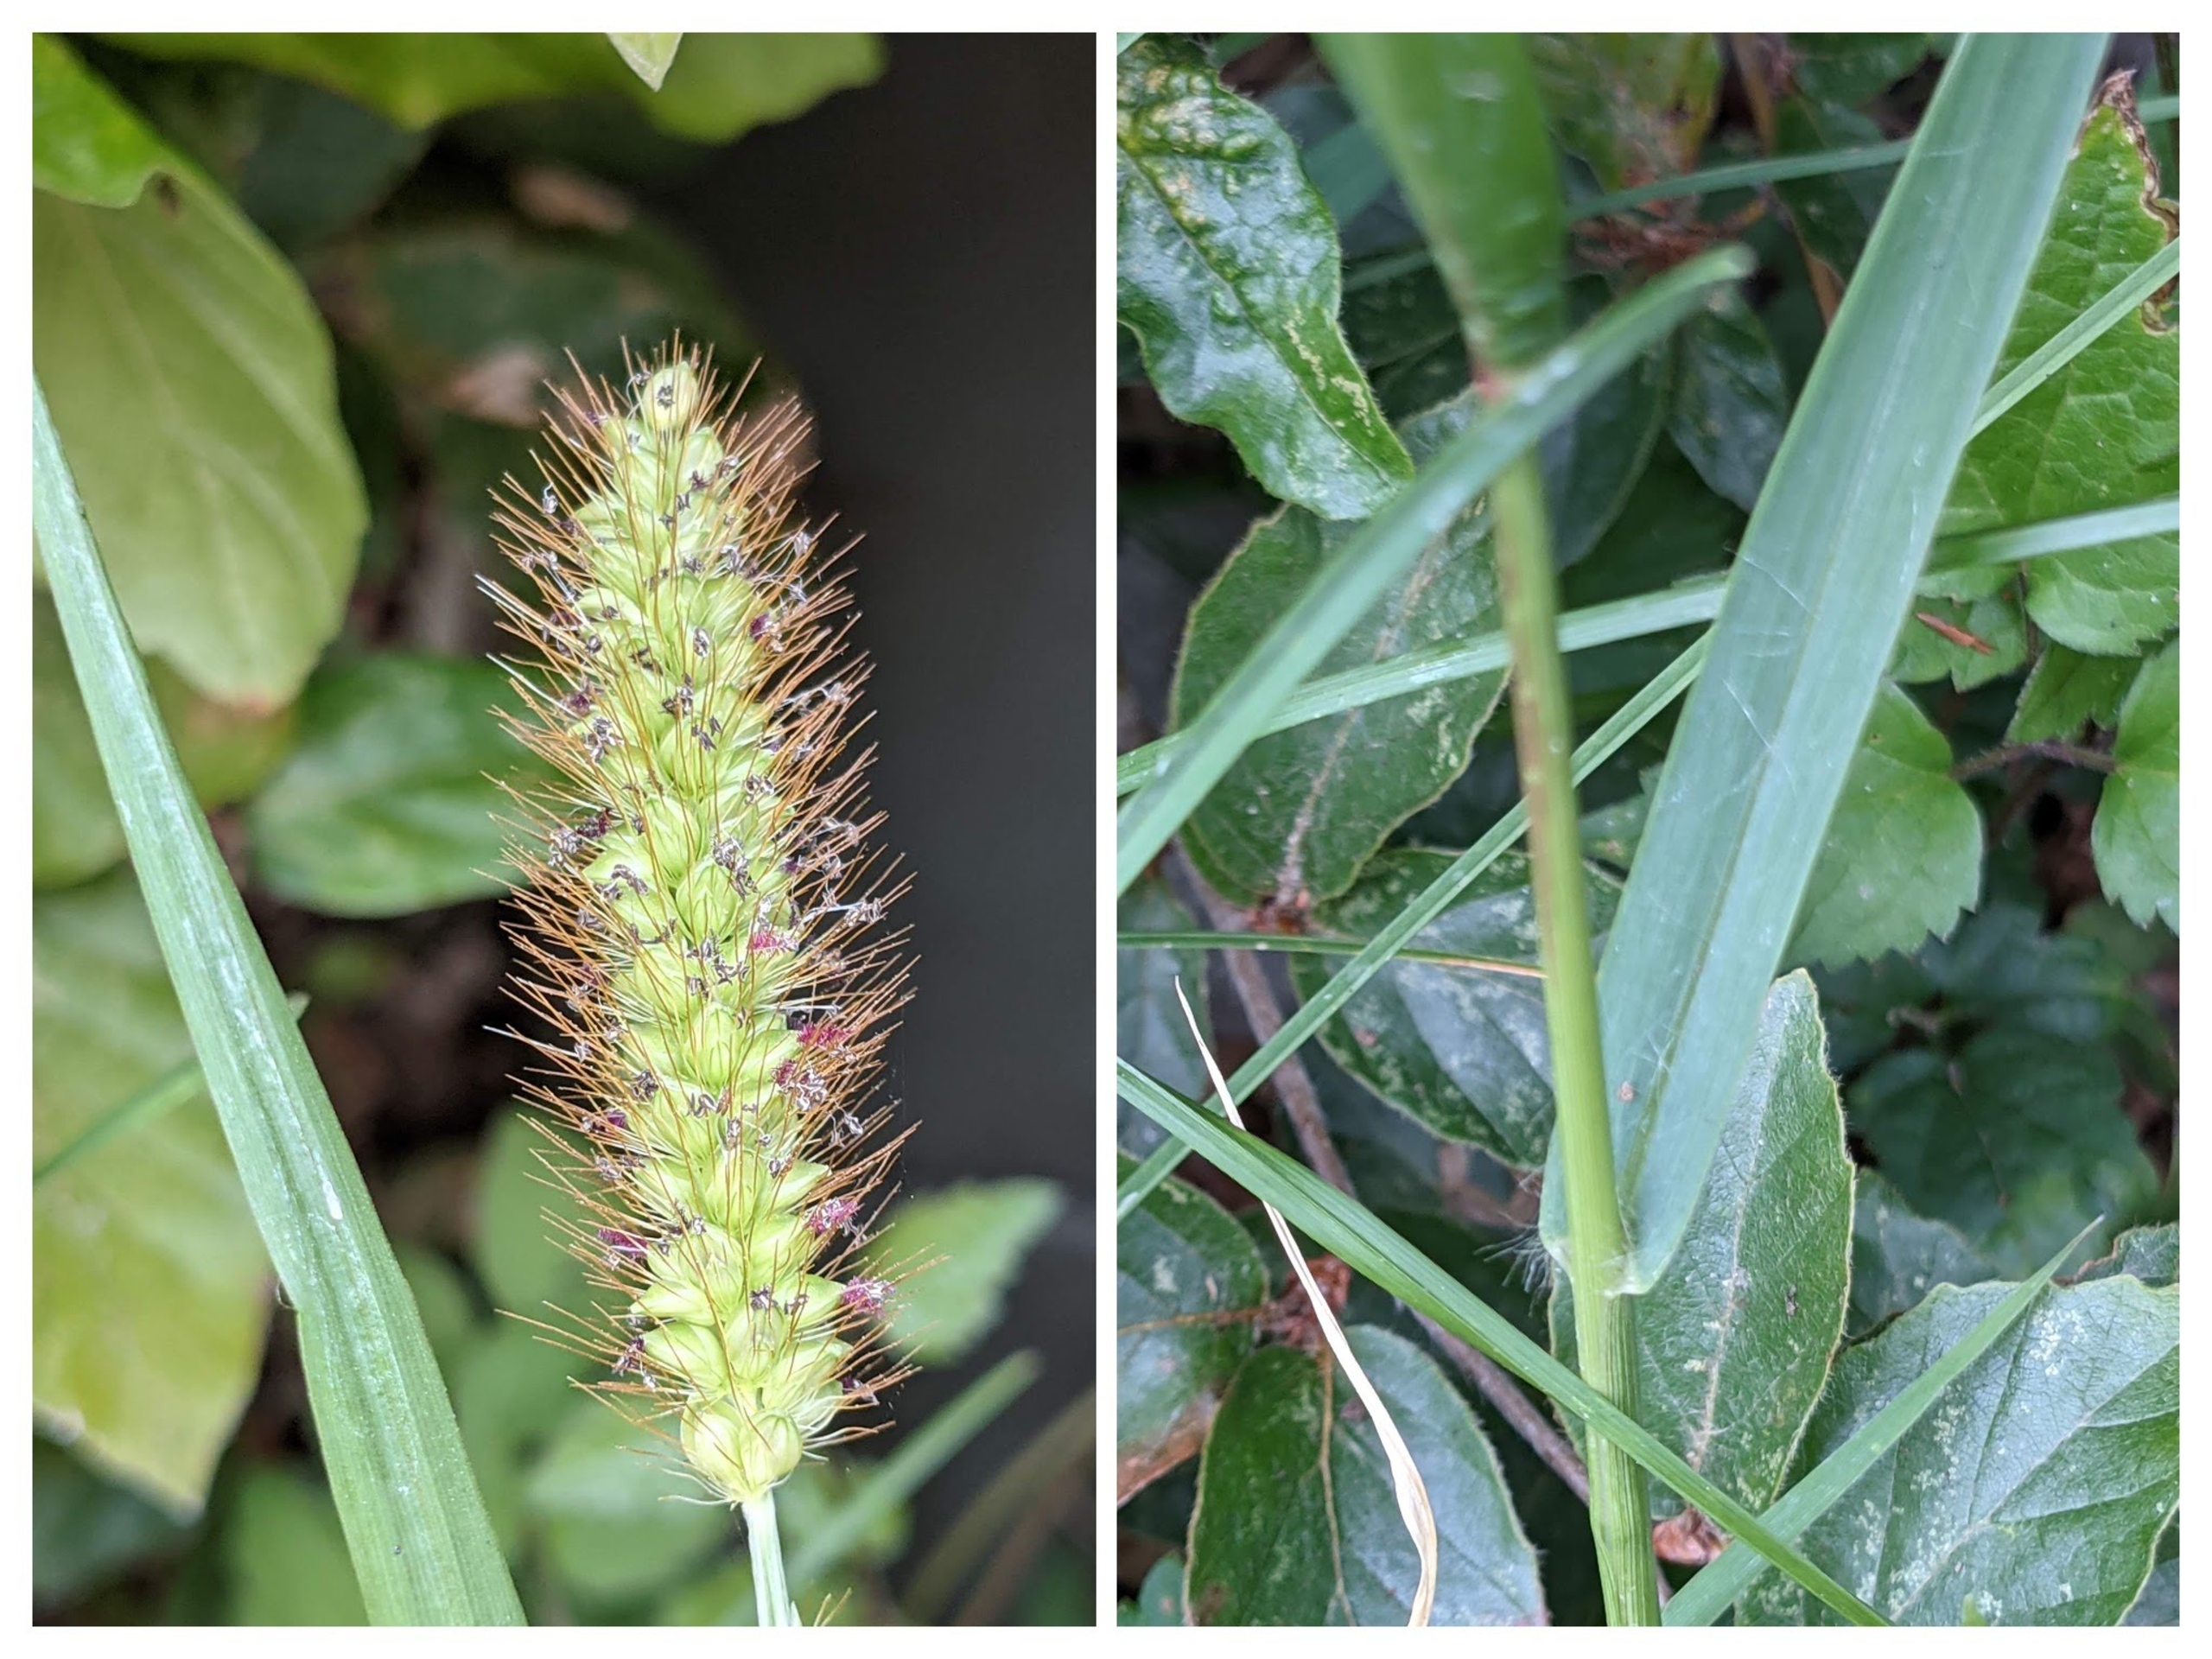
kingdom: Plantae
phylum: Tracheophyta
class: Liliopsida
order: Poales
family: Poaceae
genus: Setaria
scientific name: Setaria pumila
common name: Blågrøn skærmaks
